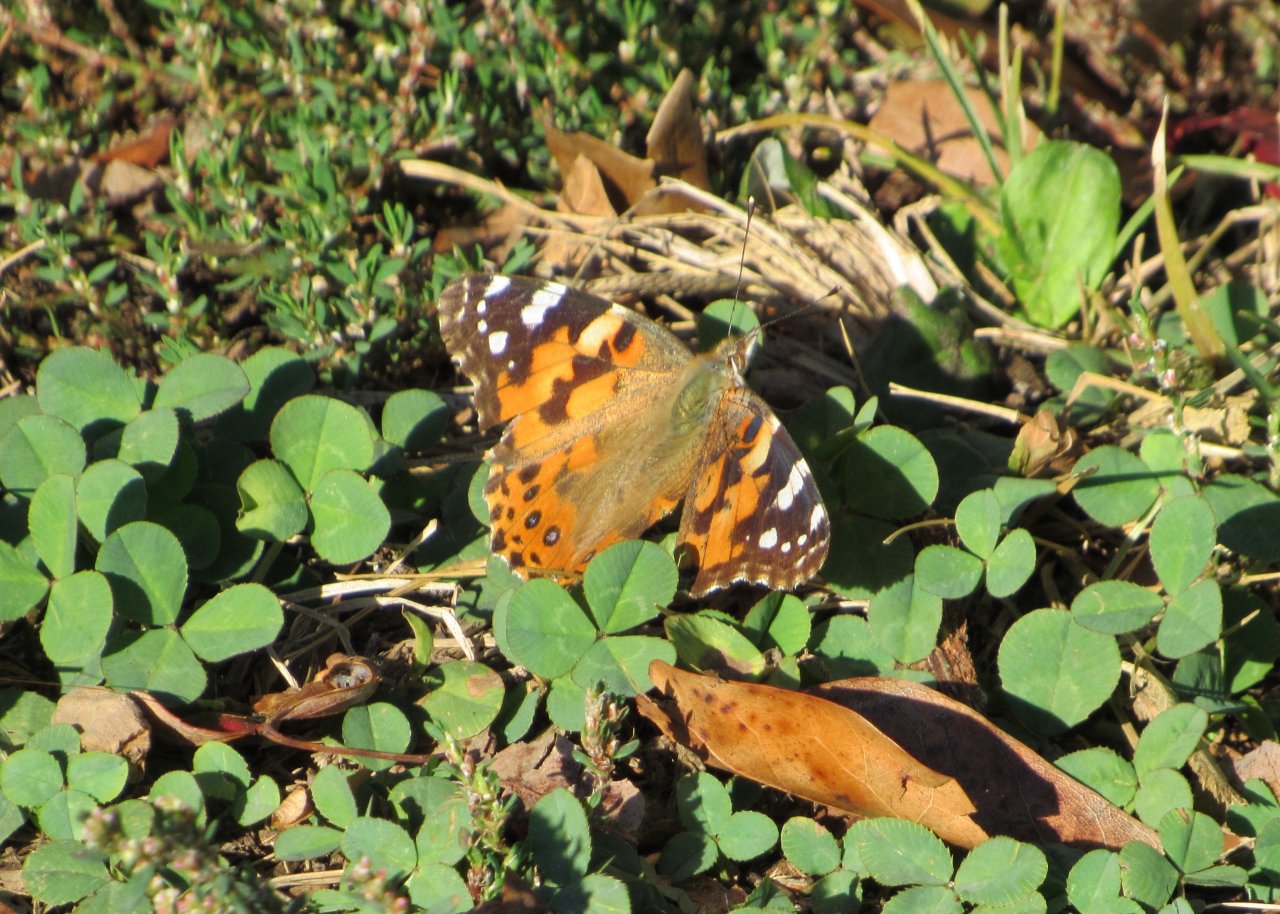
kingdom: Animalia
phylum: Arthropoda
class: Insecta
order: Lepidoptera
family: Nymphalidae
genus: Vanessa
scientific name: Vanessa cardui
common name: Painted Lady
